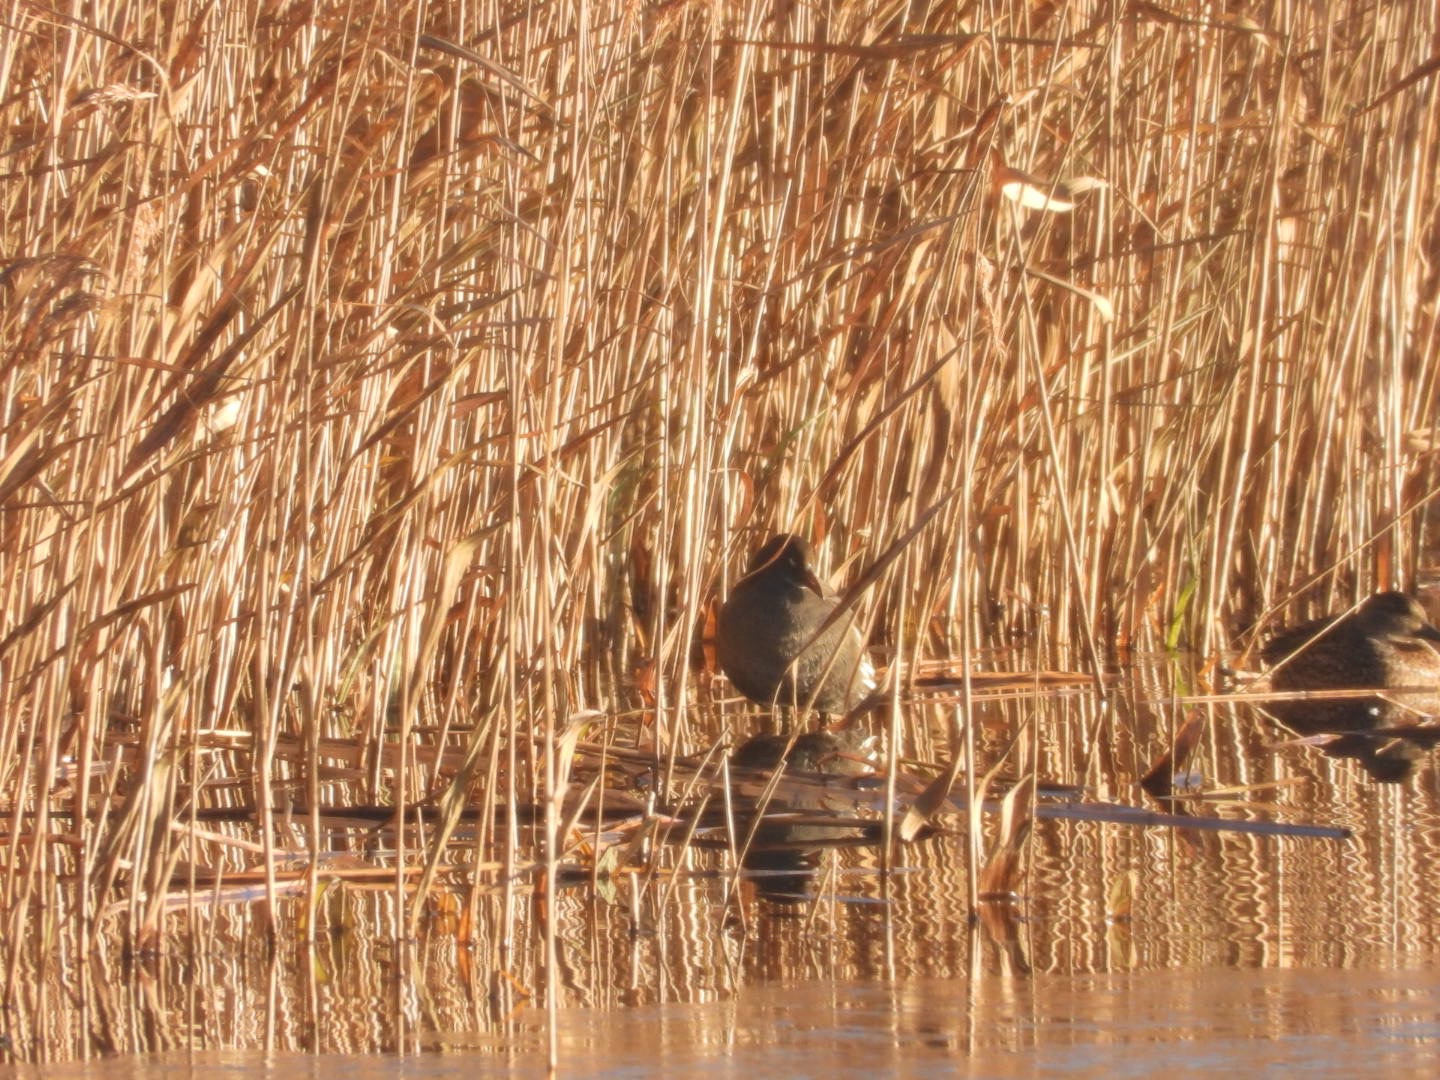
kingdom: Animalia
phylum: Chordata
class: Aves
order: Gruiformes
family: Rallidae
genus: Gallinula
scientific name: Gallinula chloropus
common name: Grønbenet rørhøne
